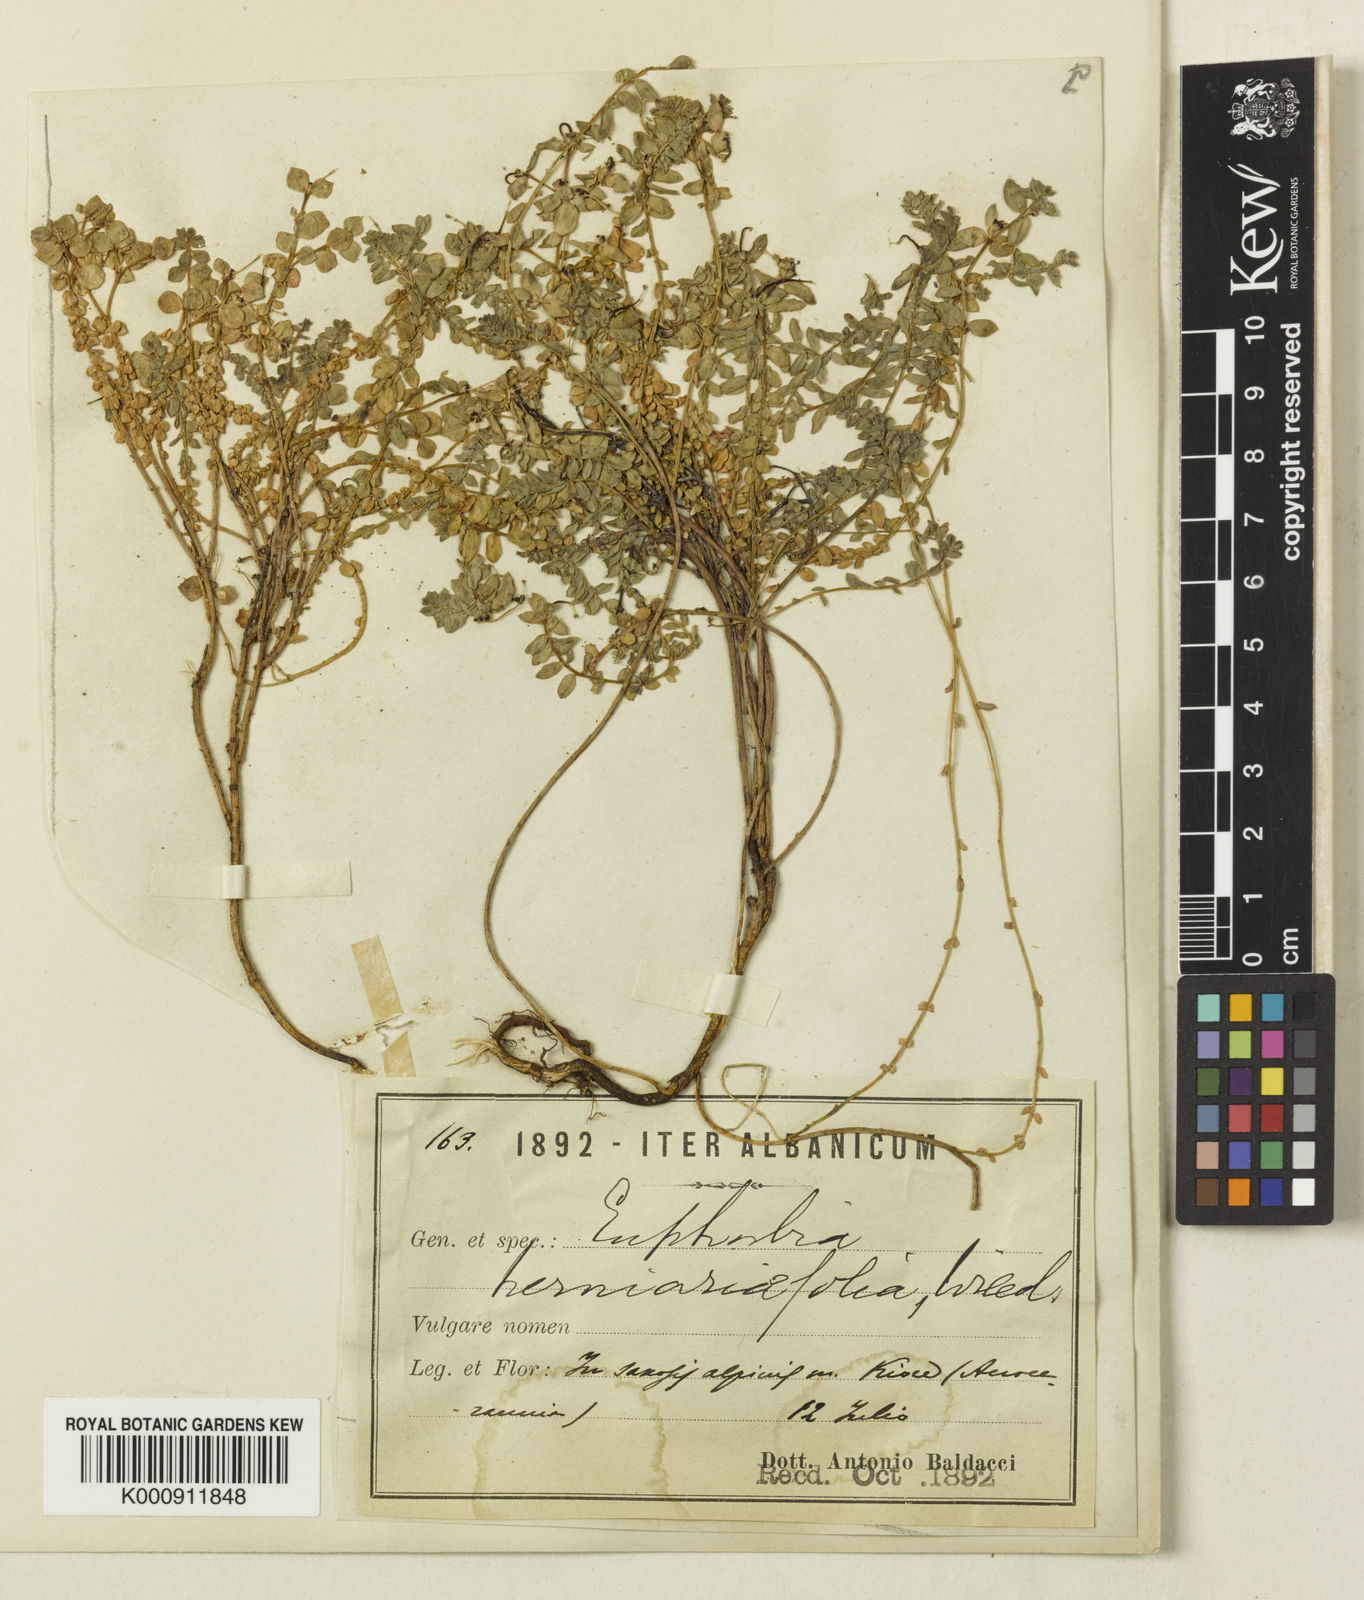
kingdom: Plantae
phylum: Tracheophyta
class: Magnoliopsida
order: Malpighiales
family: Euphorbiaceae
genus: Euphorbia
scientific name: Euphorbia herniariifolia
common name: Herniaria-leaf spurge
